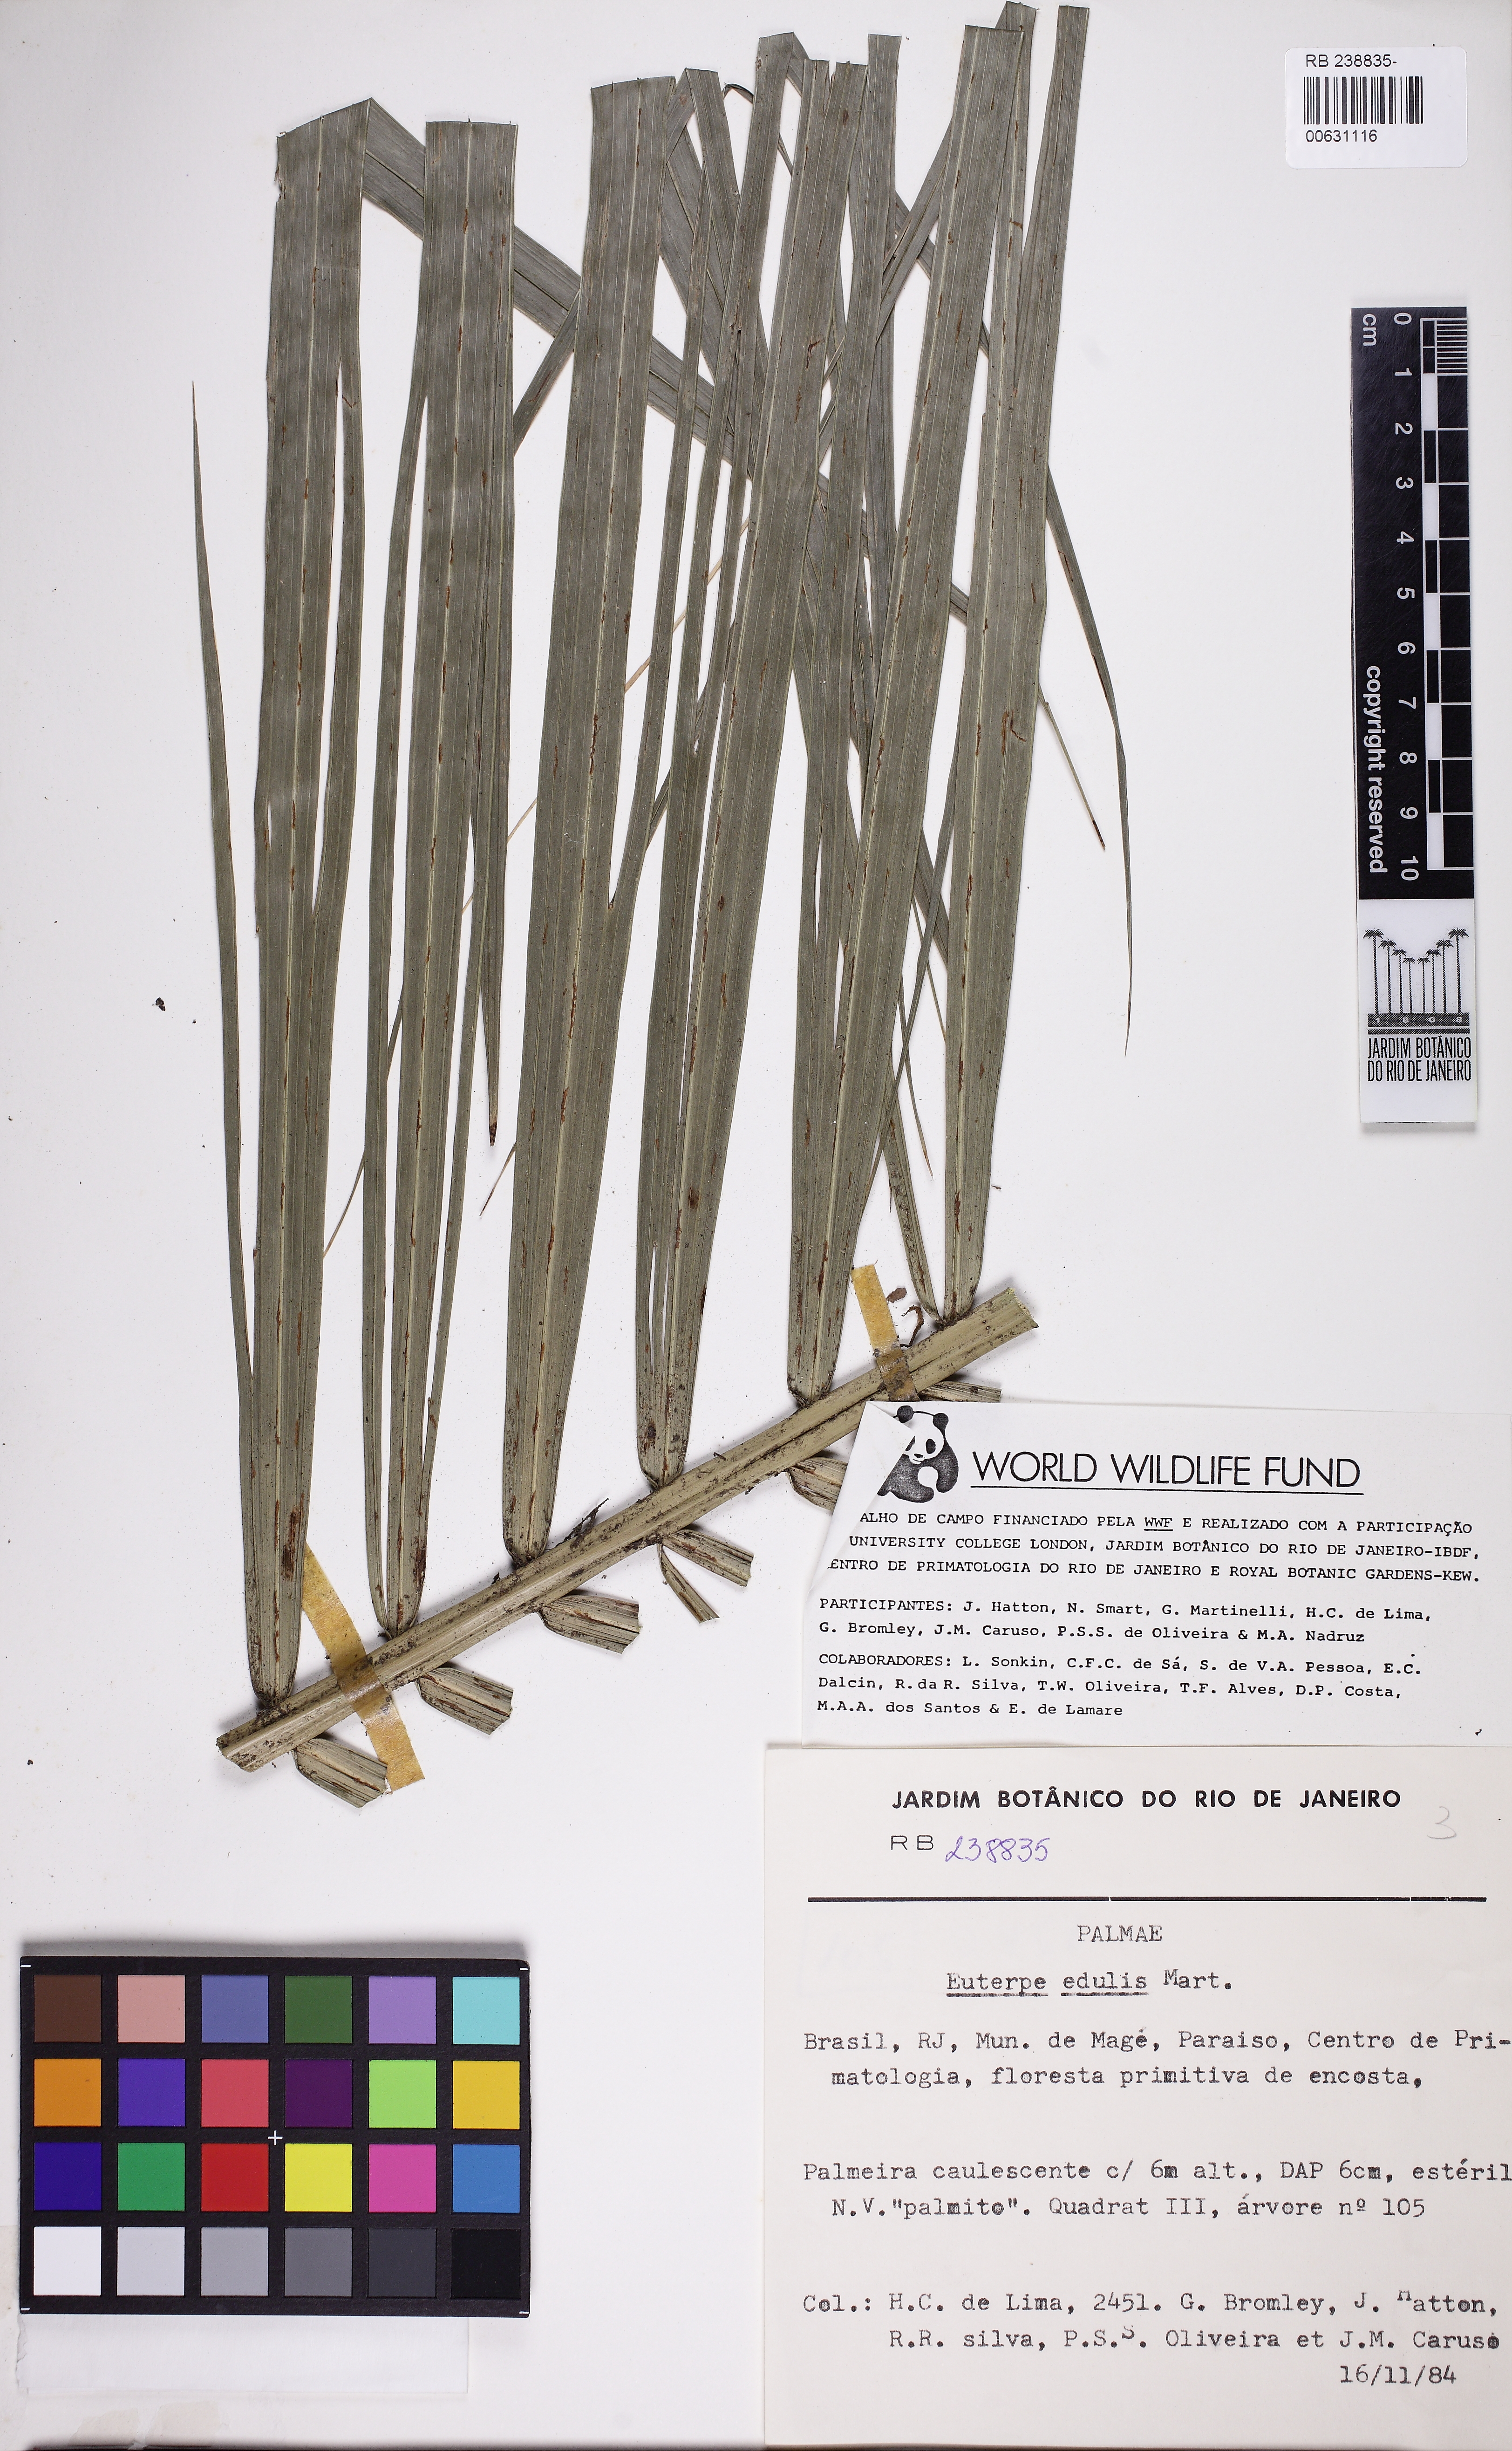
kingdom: Plantae
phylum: Tracheophyta
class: Liliopsida
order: Arecales
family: Arecaceae
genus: Euterpe
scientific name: Euterpe edulis
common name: Assai palm
